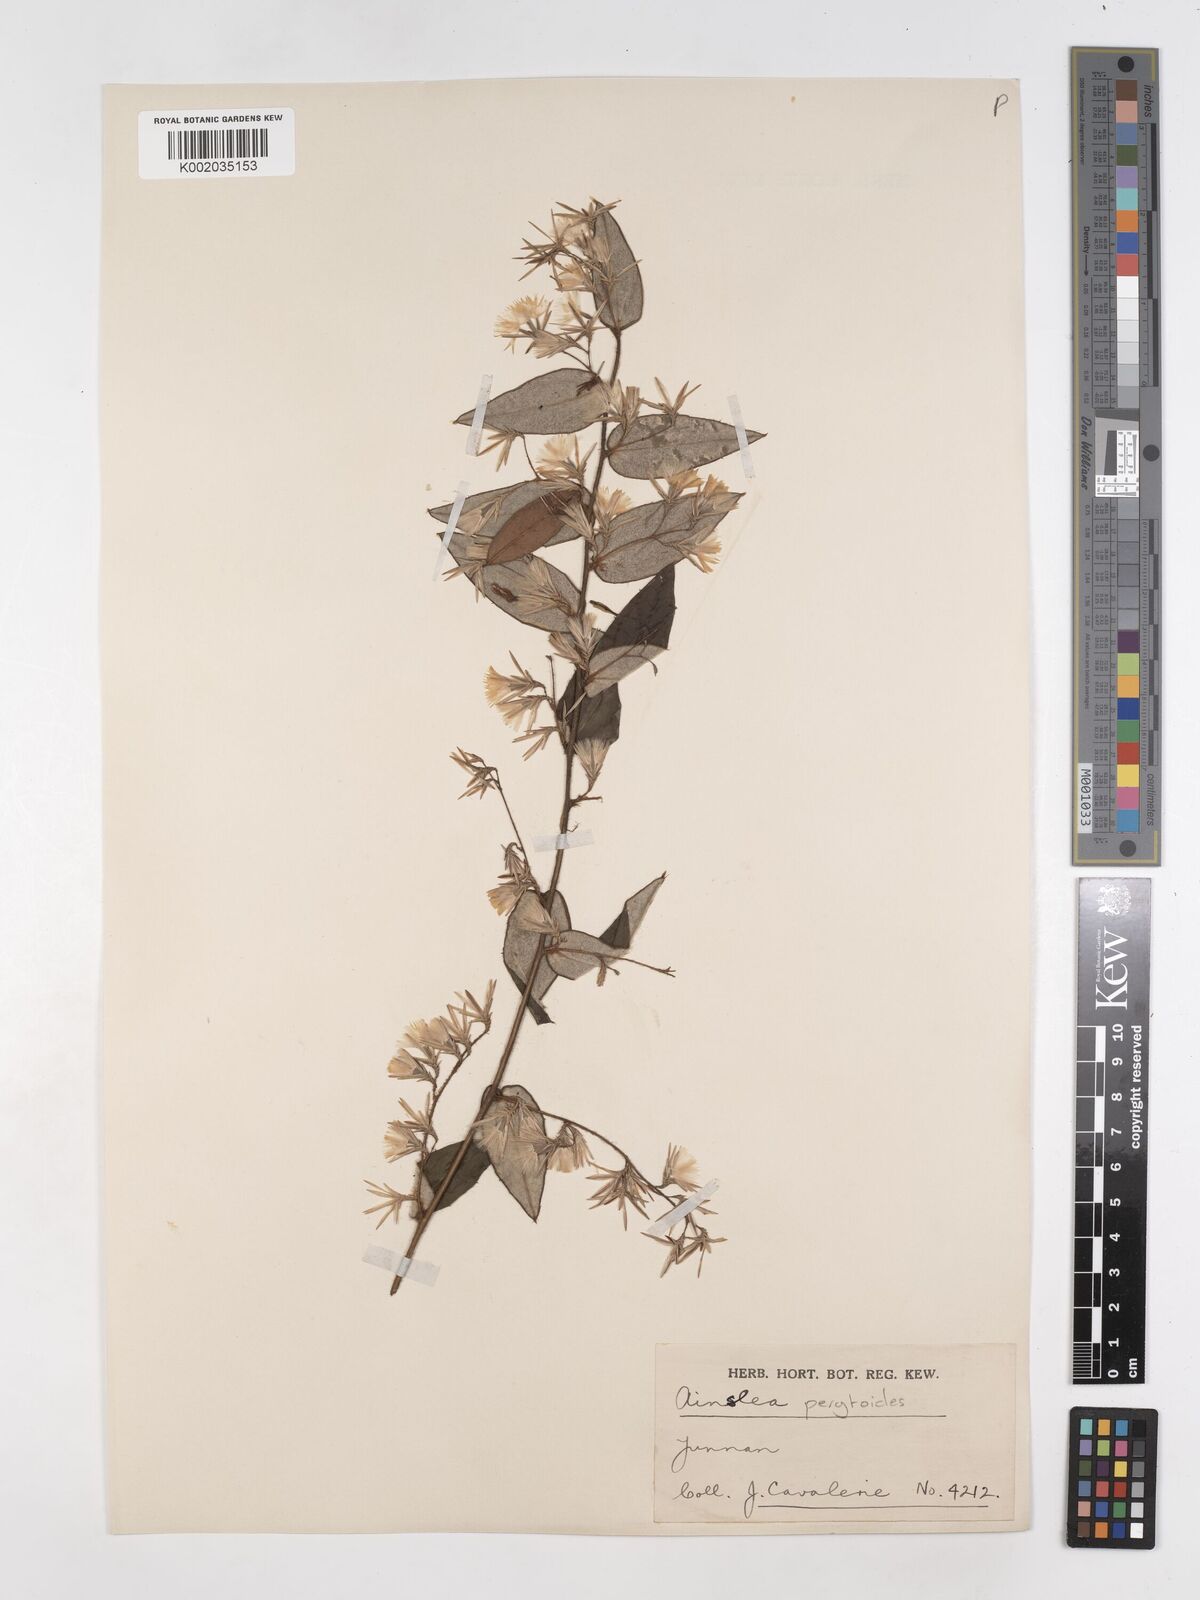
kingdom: Plantae
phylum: Tracheophyta
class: Magnoliopsida
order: Asterales
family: Asteraceae
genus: Ainsliaea
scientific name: Ainsliaea pertyoides
